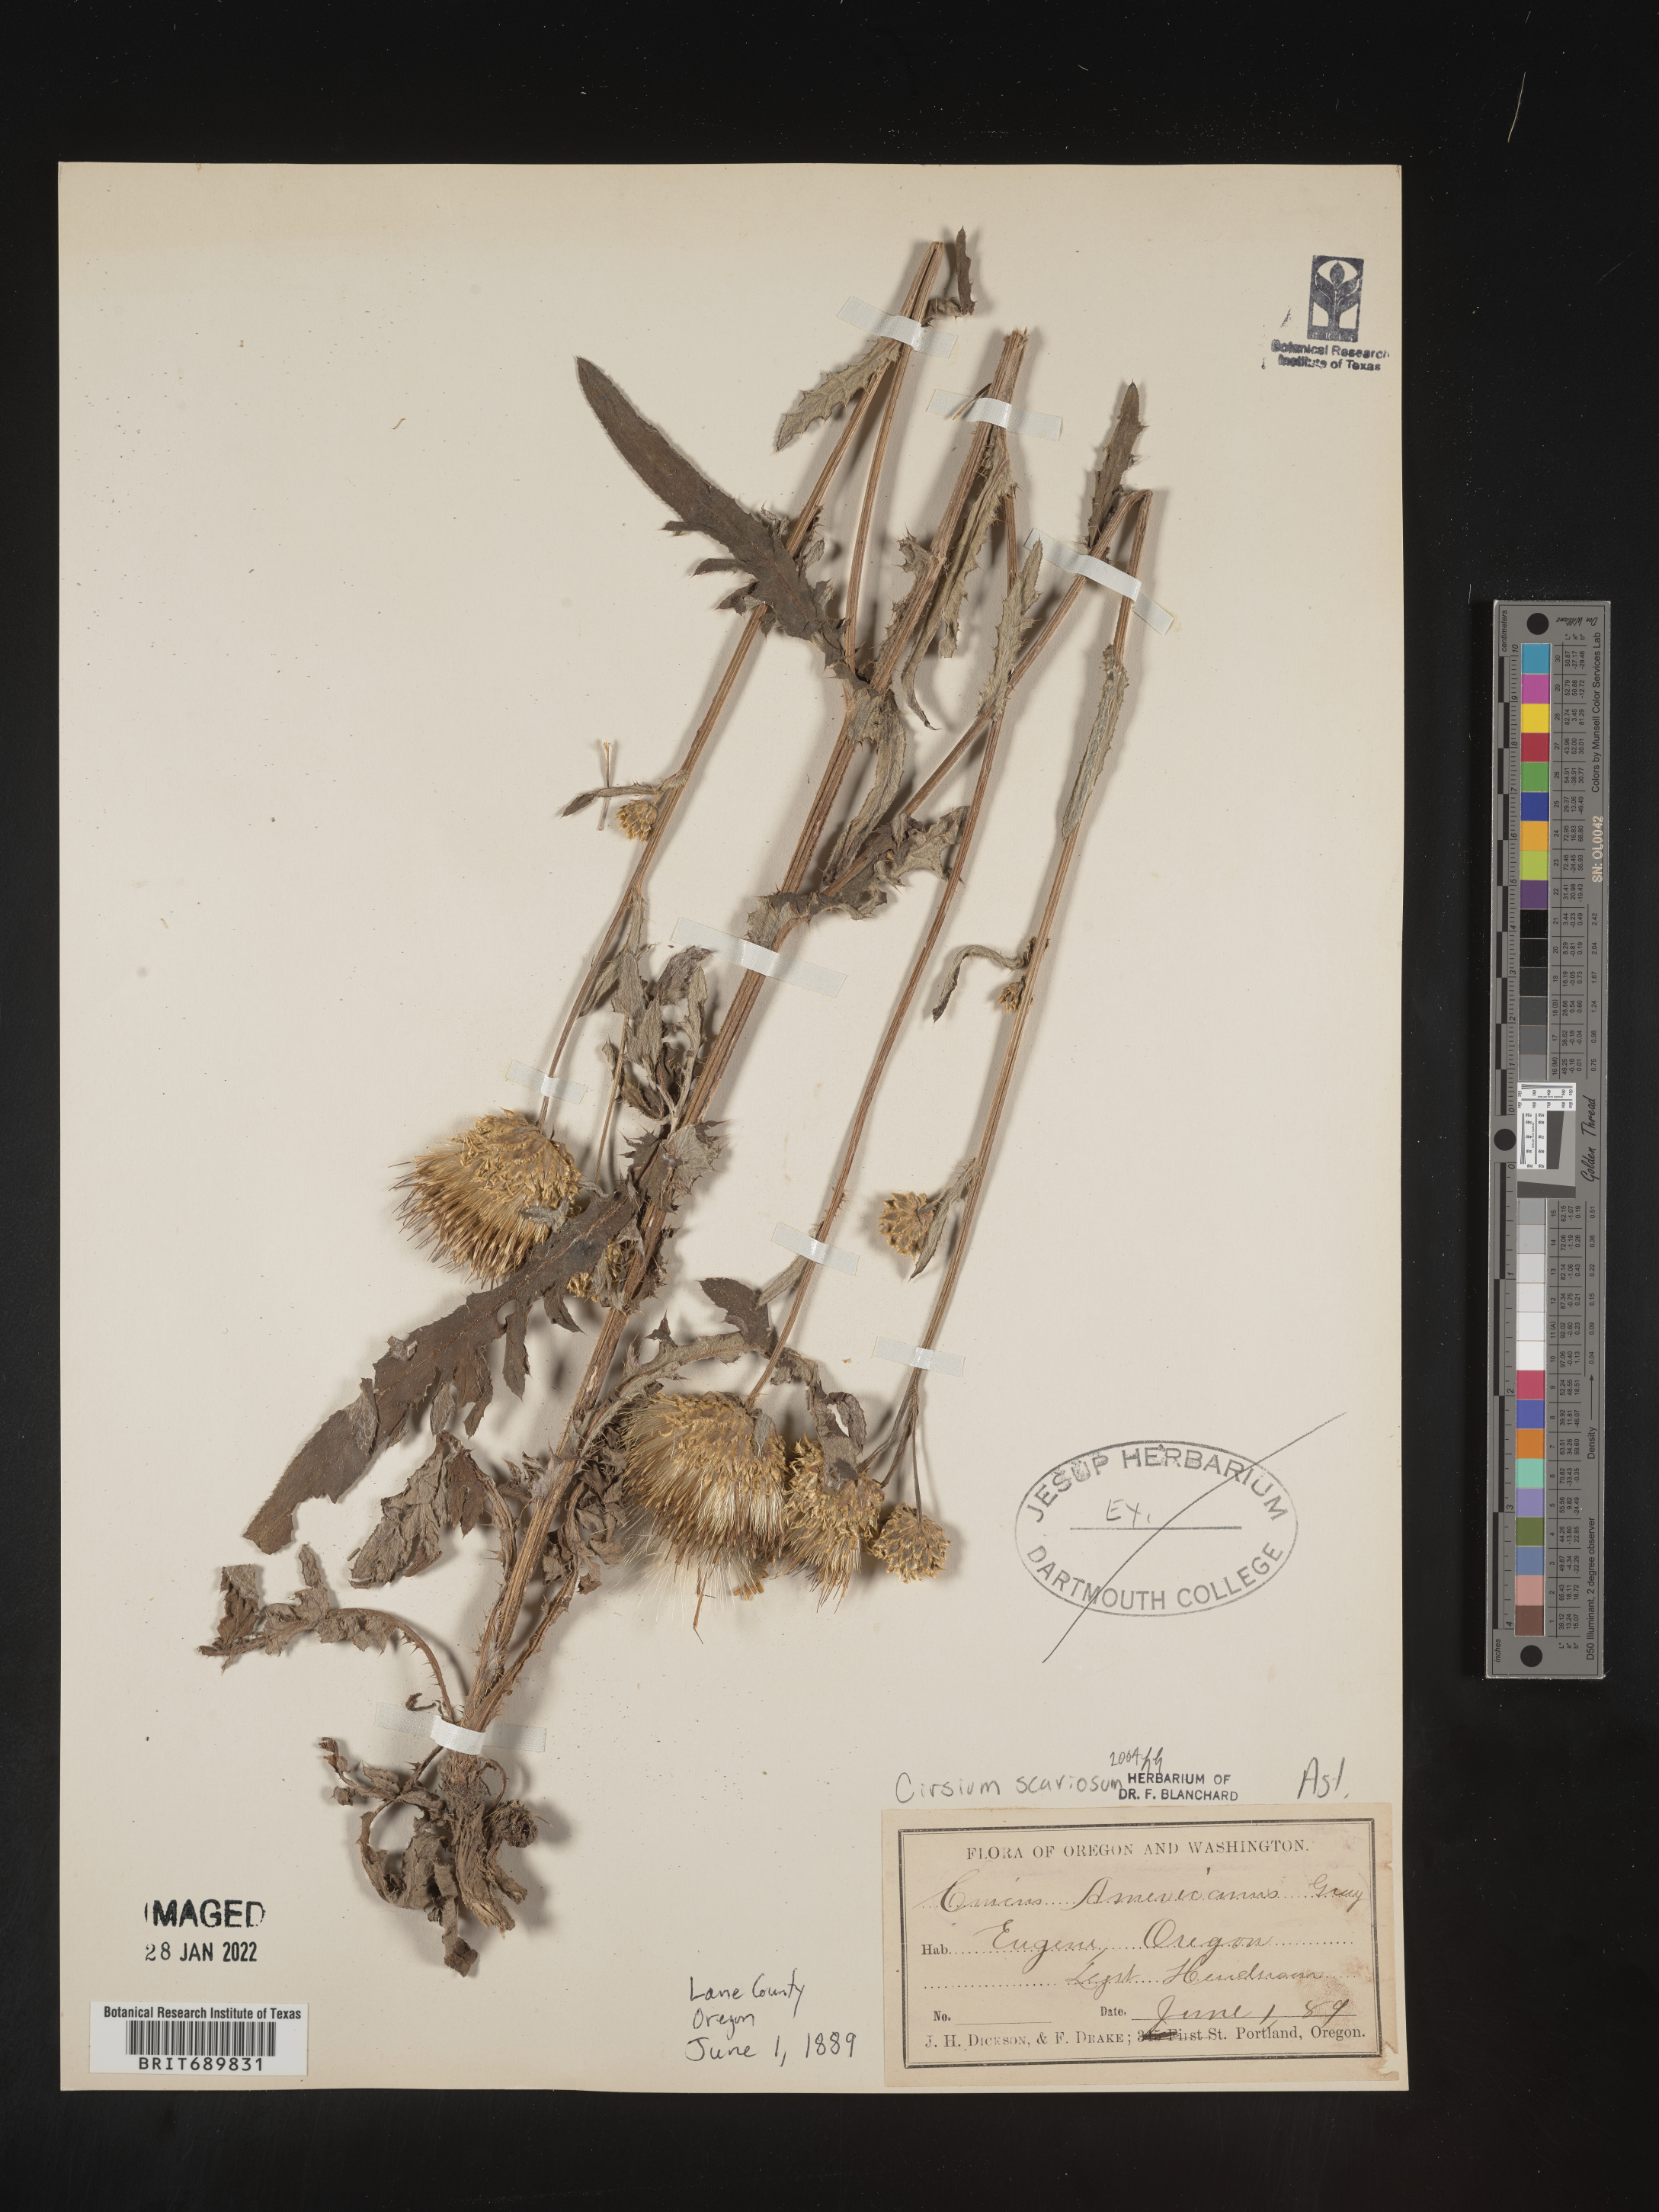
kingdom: Plantae
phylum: Tracheophyta
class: Magnoliopsida
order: Asterales
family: Asteraceae
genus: Cirsium
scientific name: Cirsium scariosum
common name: Meadow thistle
